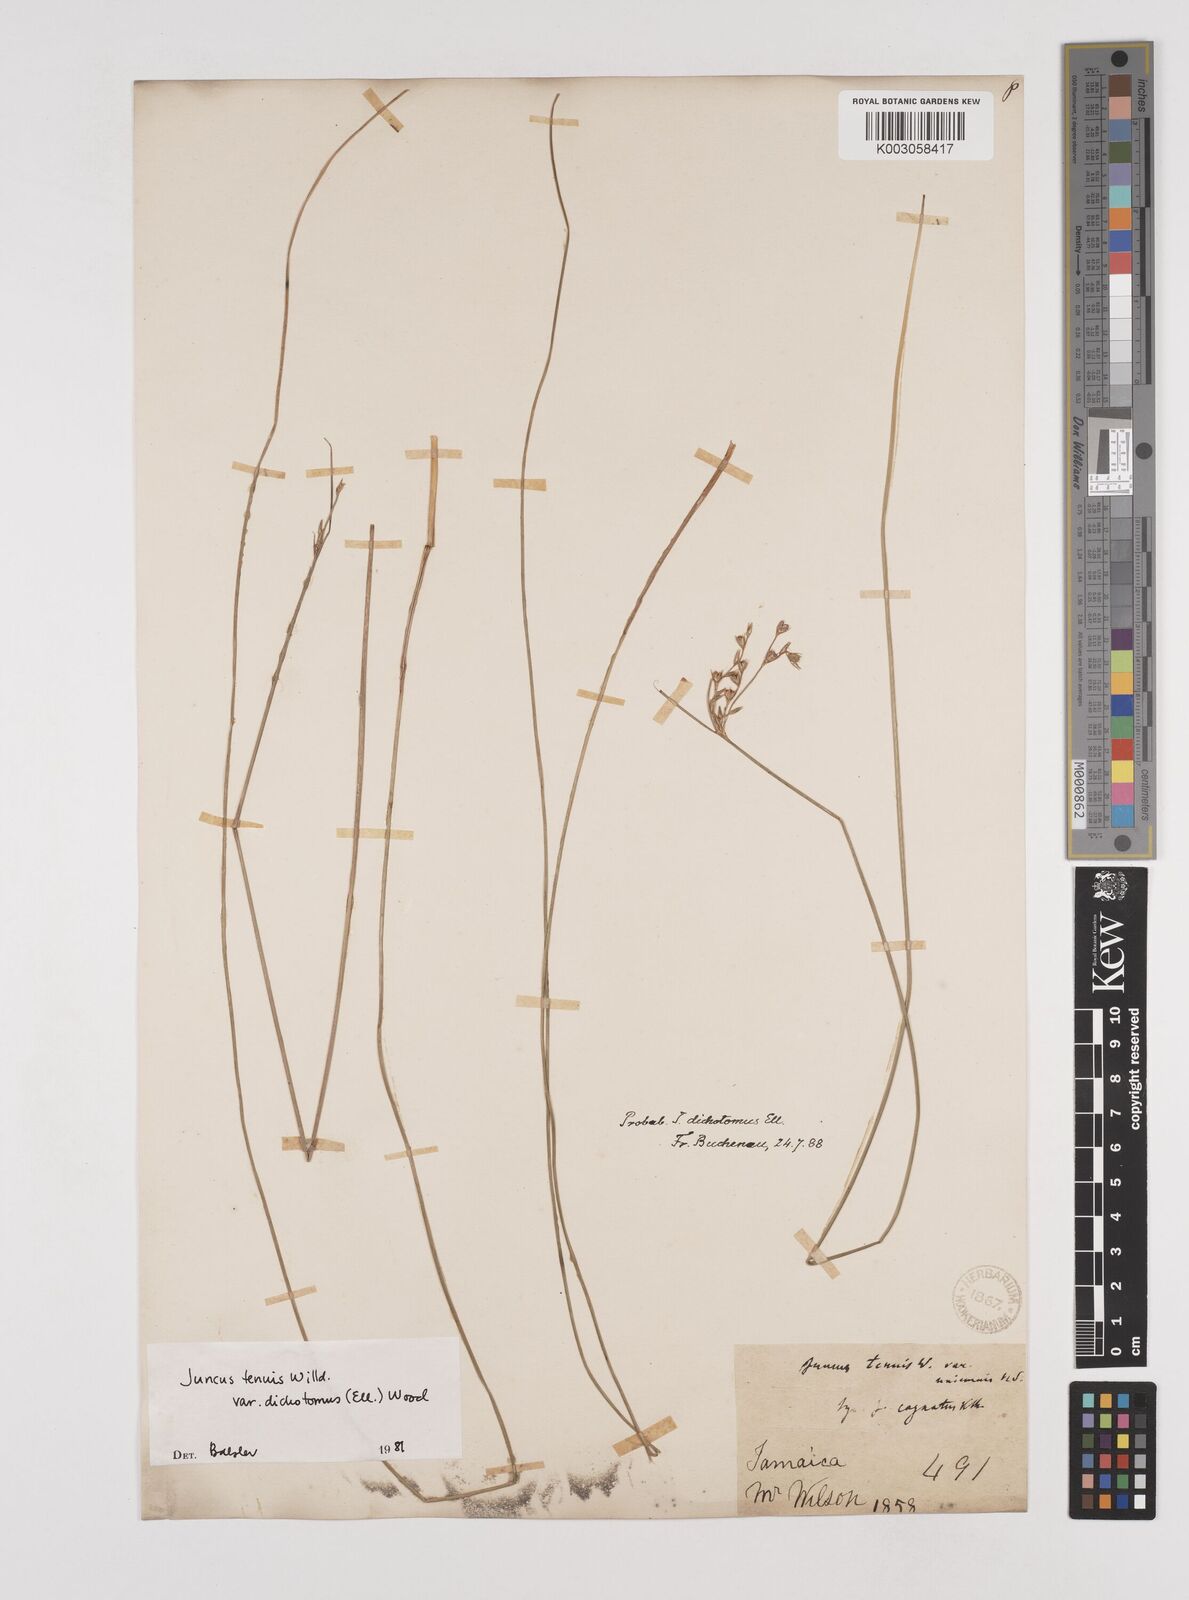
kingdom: Plantae
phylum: Tracheophyta
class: Liliopsida
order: Poales
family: Juncaceae
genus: Juncus
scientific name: Juncus dichotomus
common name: Forked rush
